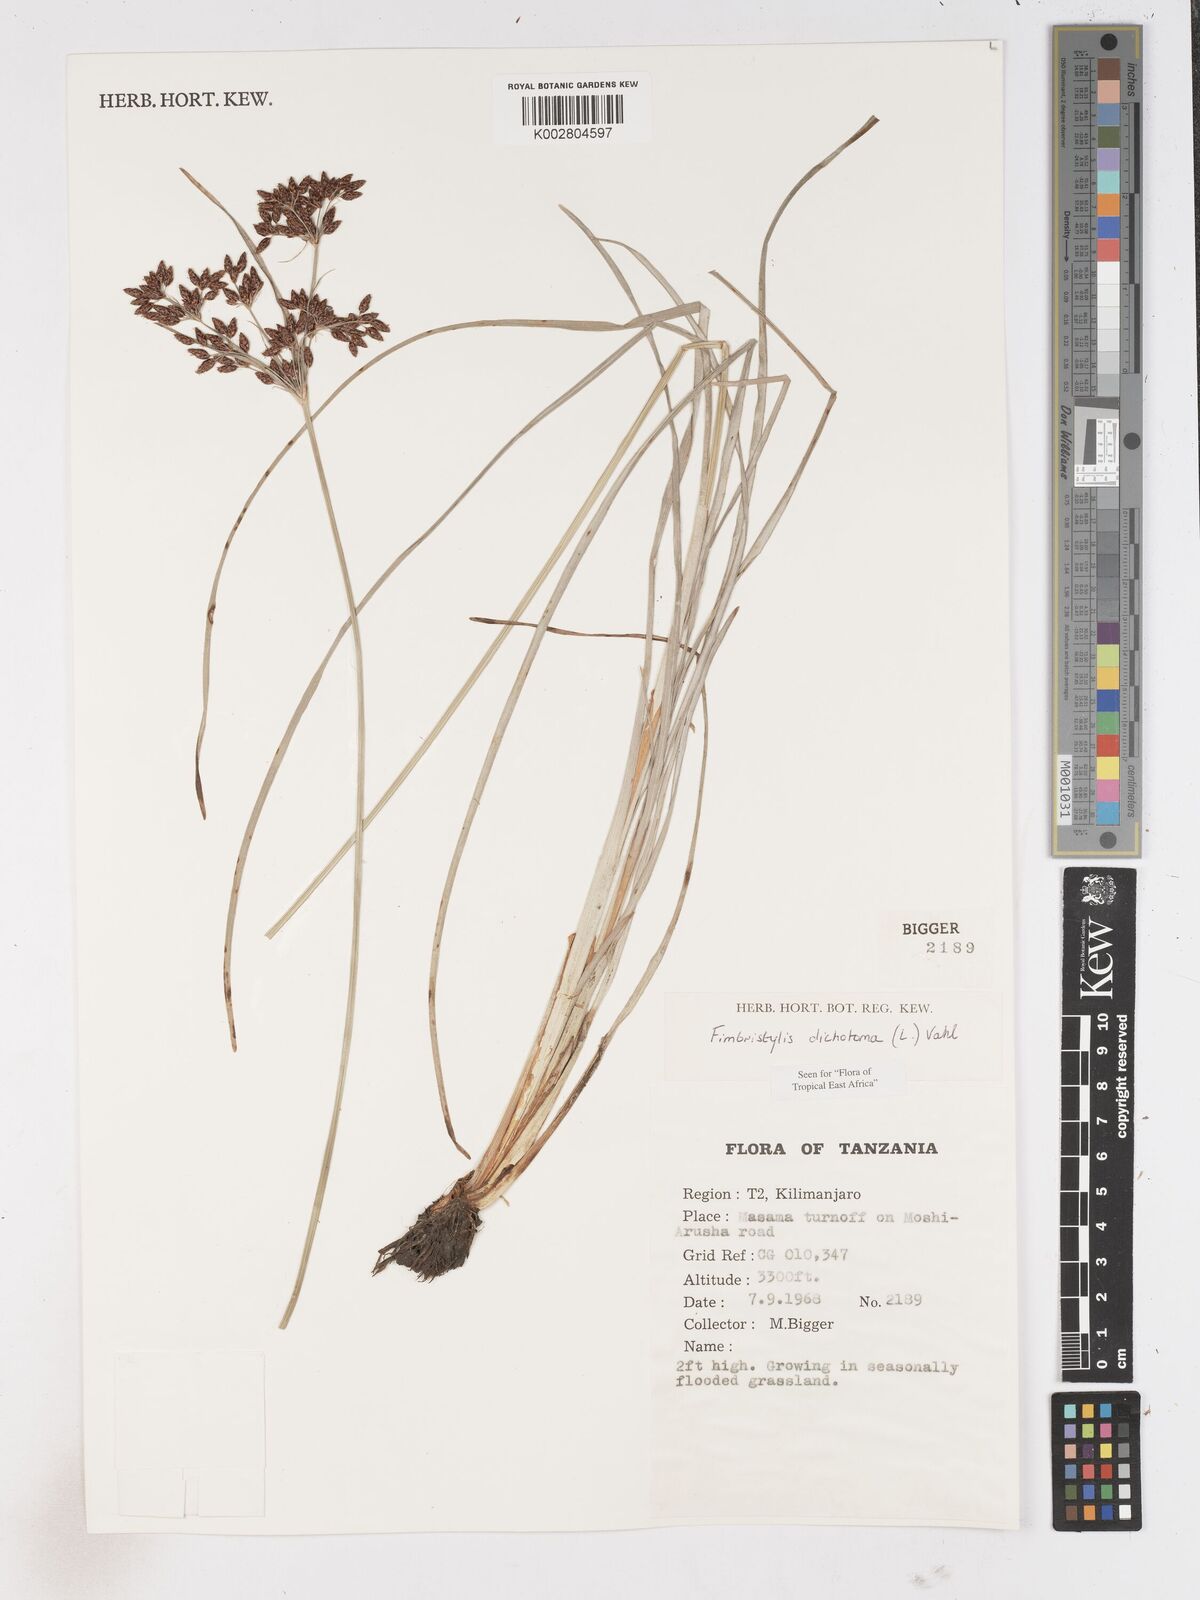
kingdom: Plantae
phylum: Tracheophyta
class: Liliopsida
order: Poales
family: Cyperaceae
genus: Fimbristylis
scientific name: Fimbristylis dichotoma
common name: Forked fimbry
